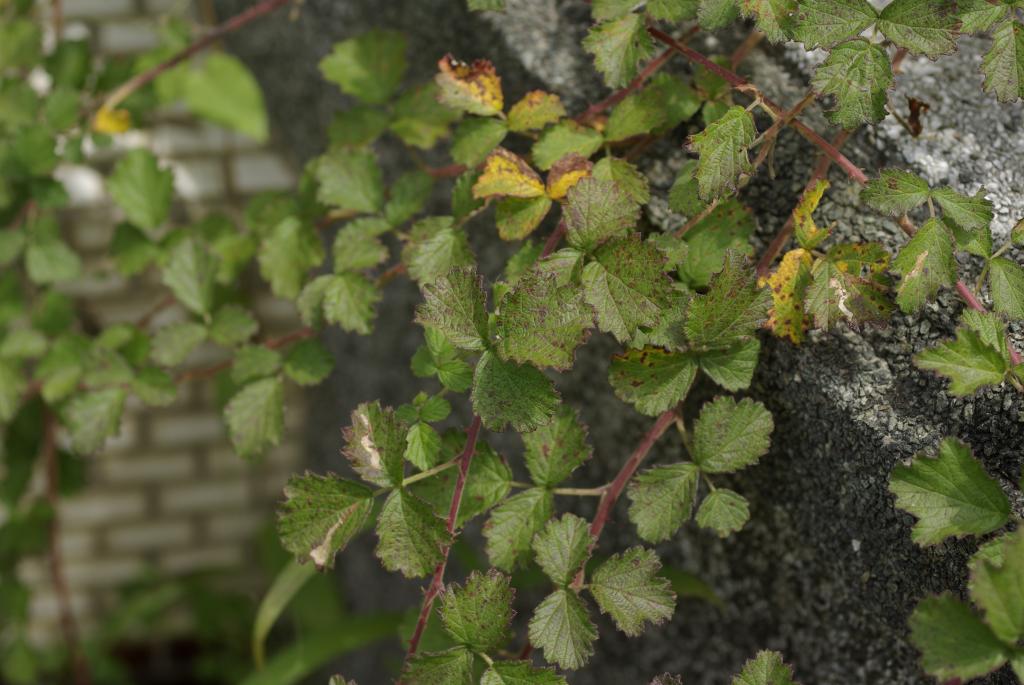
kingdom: Plantae
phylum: Tracheophyta
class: Magnoliopsida
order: Rosales
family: Rosaceae
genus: Rubus
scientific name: Rubus parvifolius
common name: Threeleaf blackberry
